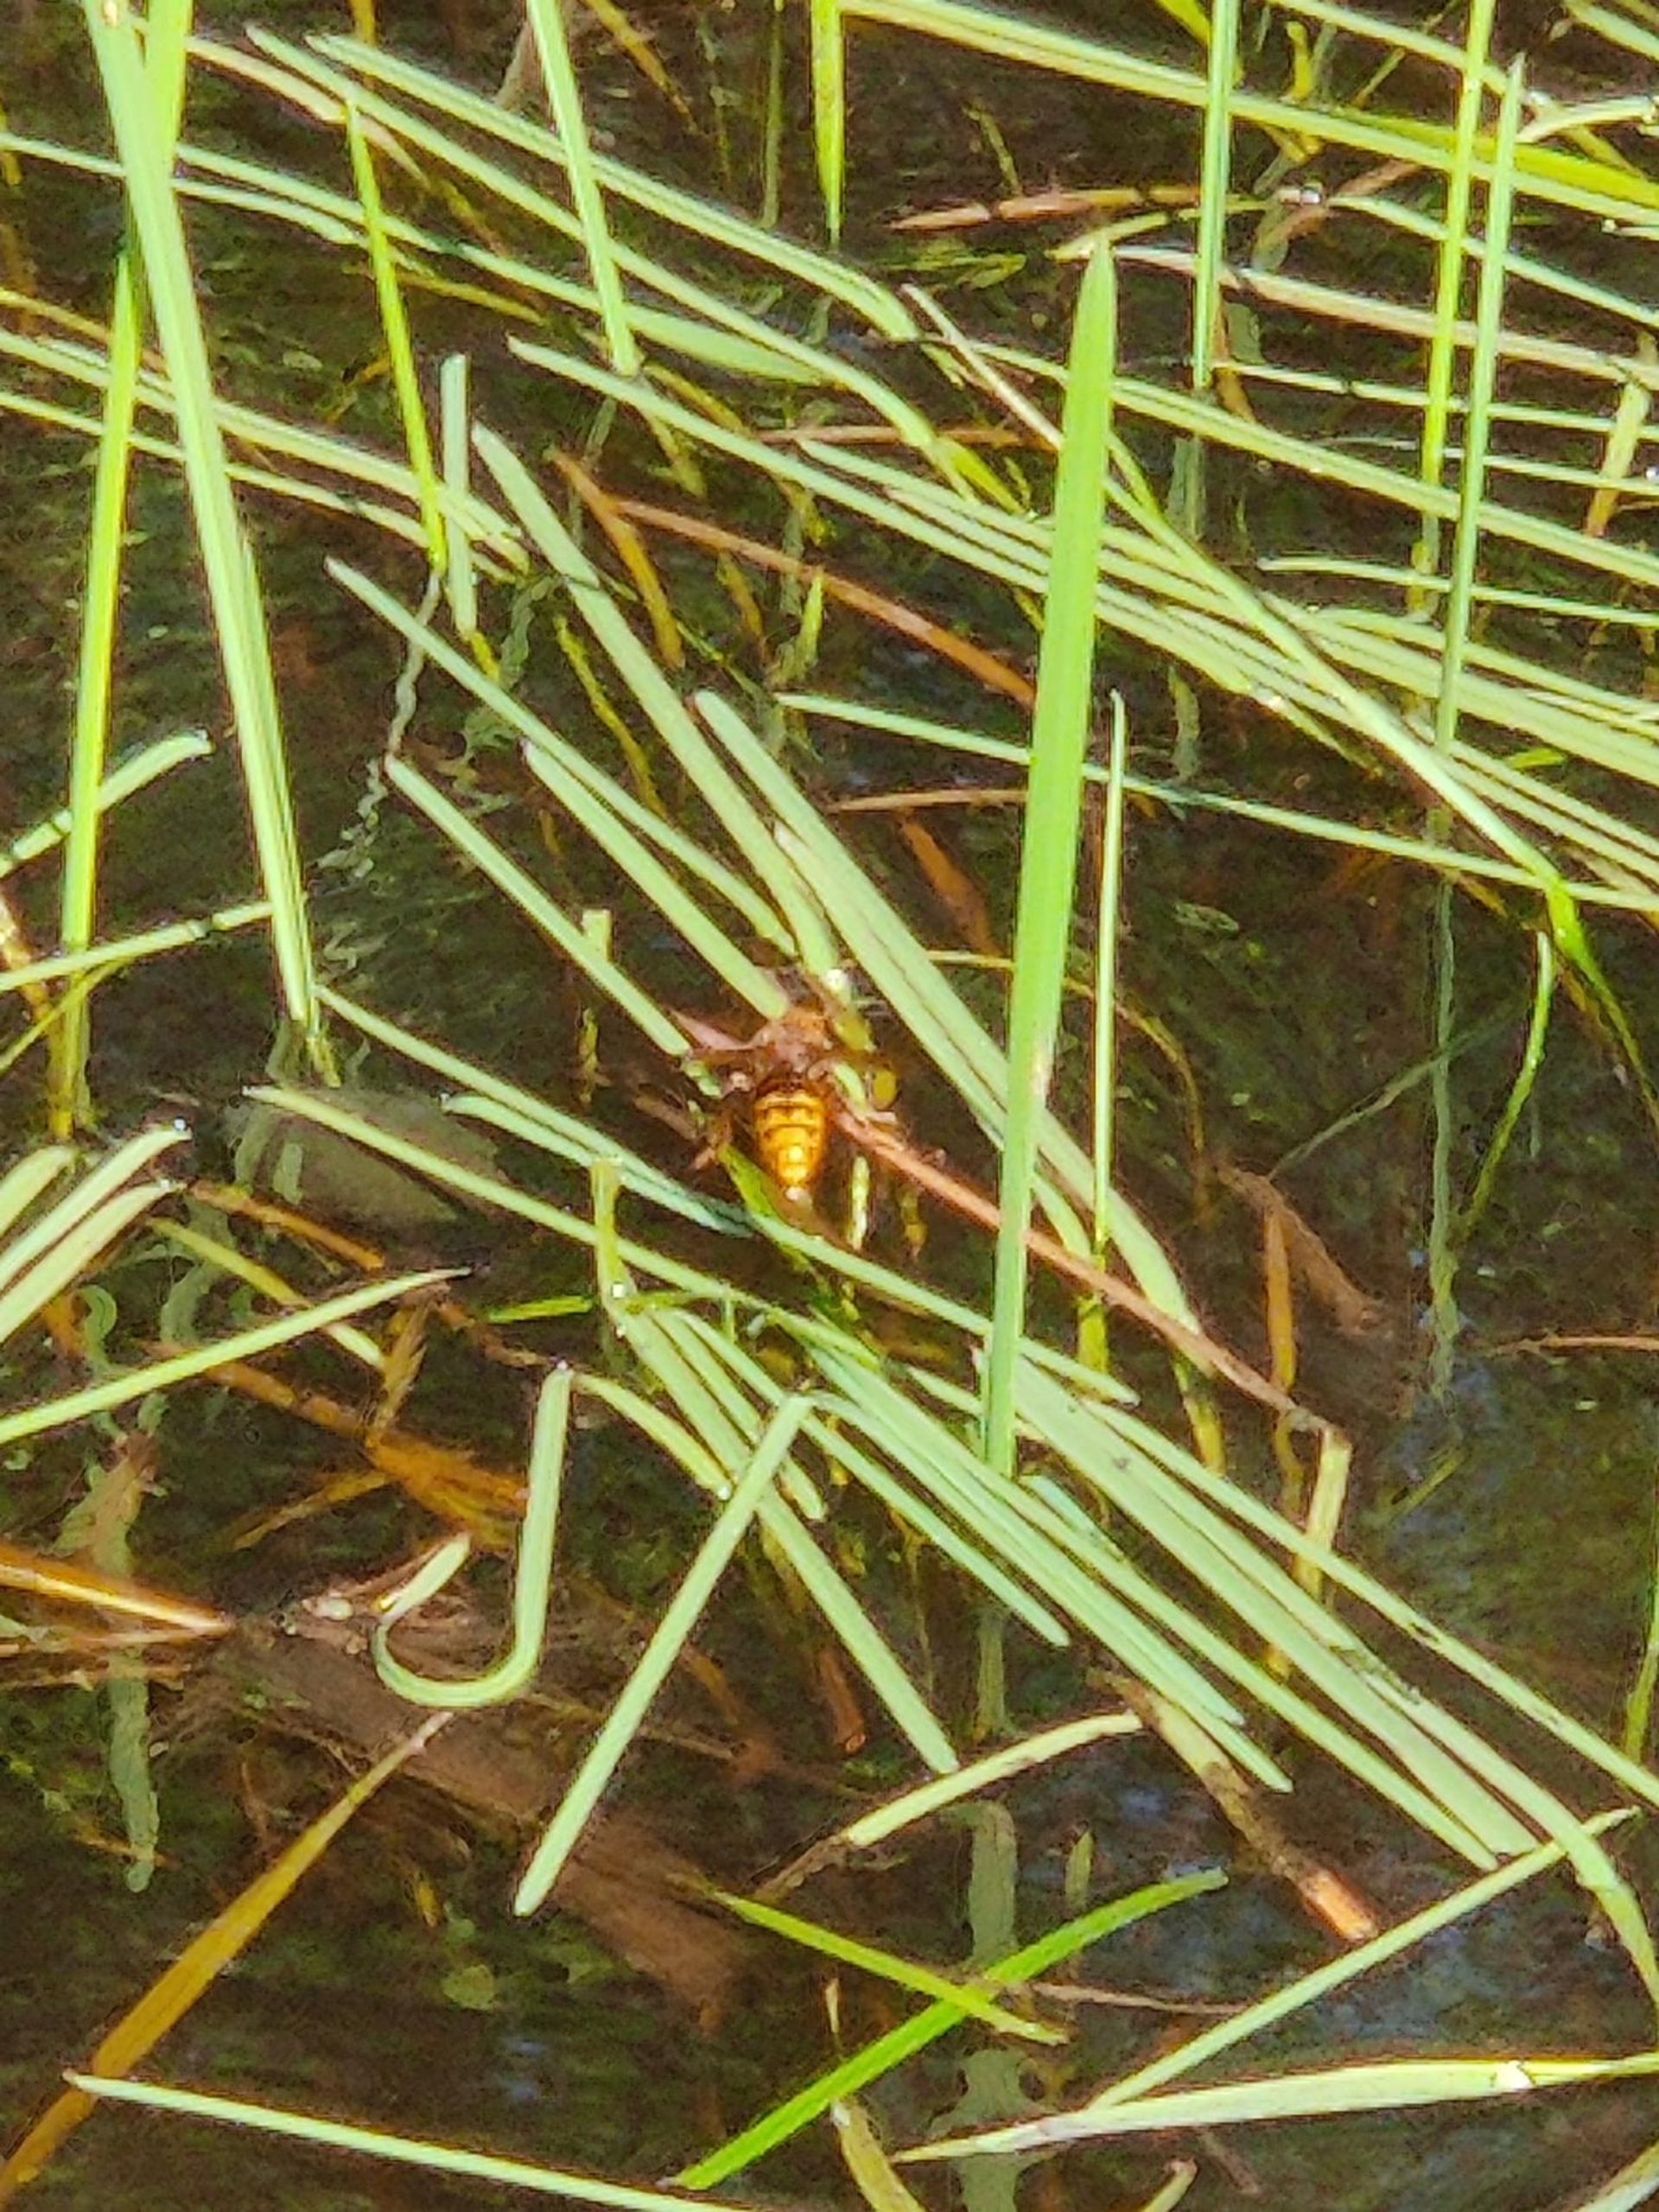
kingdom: Animalia
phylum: Arthropoda
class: Insecta
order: Hymenoptera
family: Vespidae
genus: Vespa
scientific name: Vespa crabro
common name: Stor gedehams
